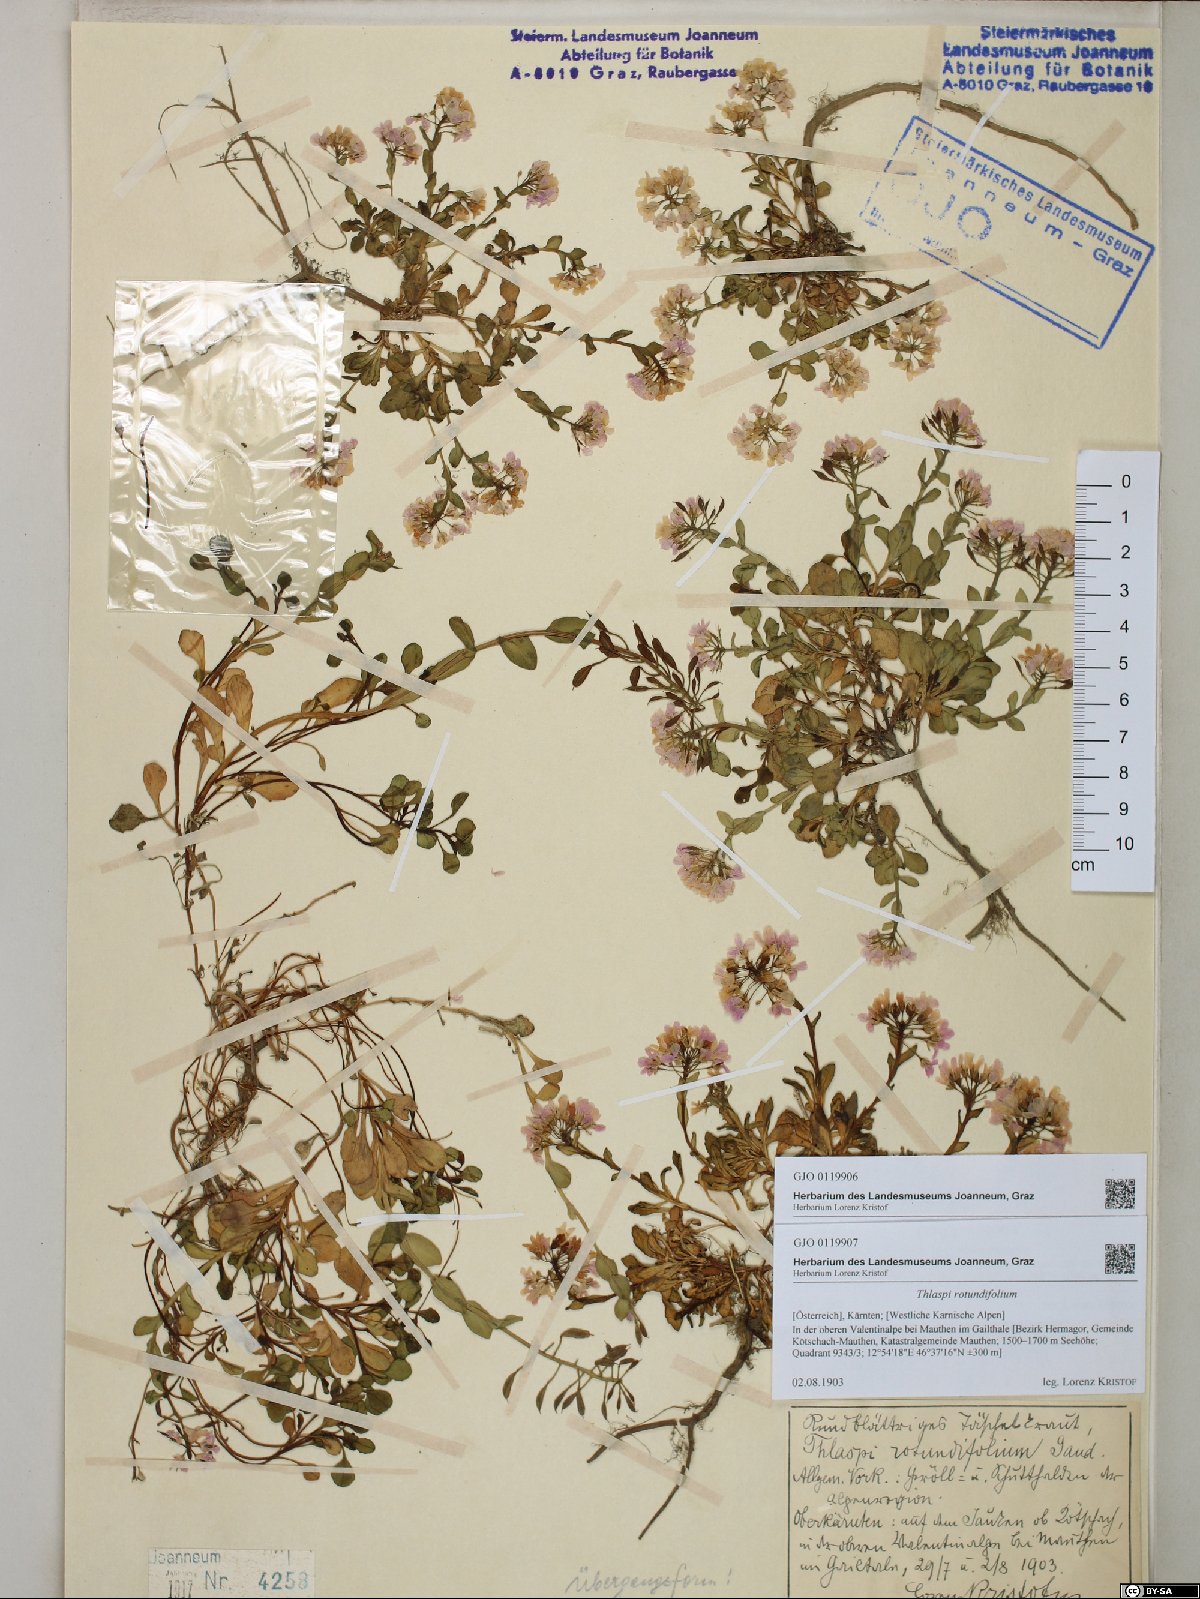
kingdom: Plantae
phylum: Tracheophyta
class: Magnoliopsida
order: Brassicales
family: Brassicaceae
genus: Noccaea
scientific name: Noccaea rotundifolia
